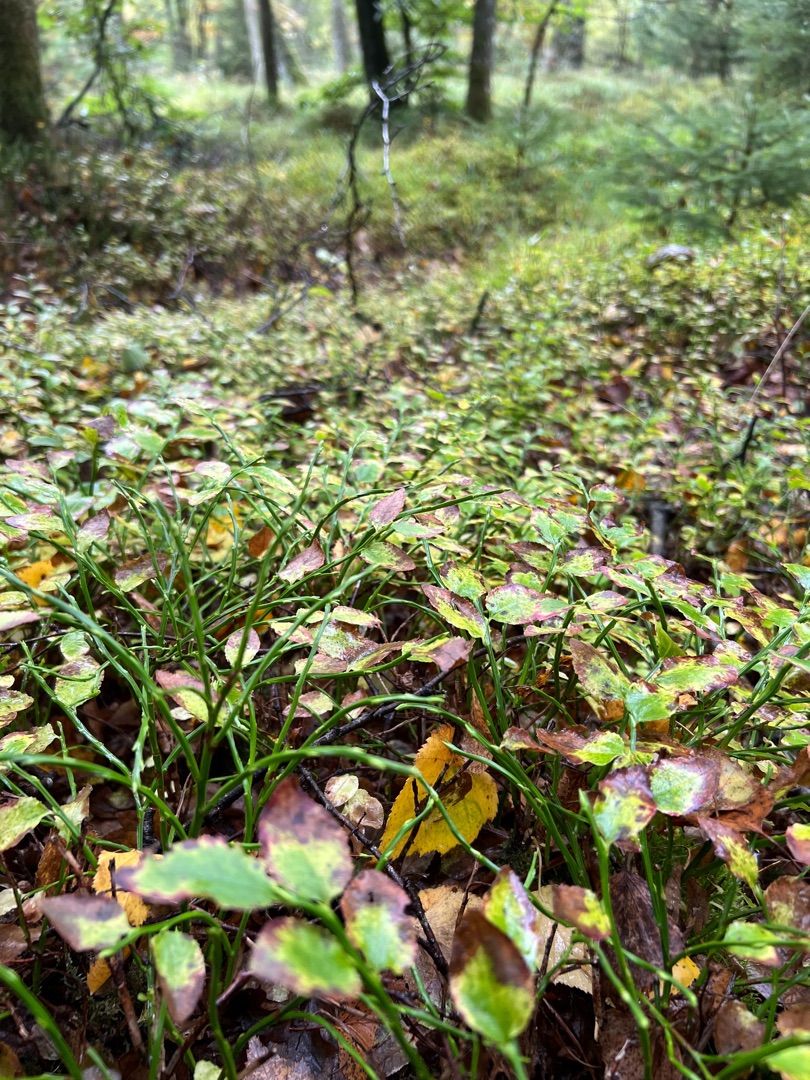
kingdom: Plantae
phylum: Tracheophyta
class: Magnoliopsida
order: Ericales
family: Ericaceae
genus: Vaccinium
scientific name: Vaccinium myrtillus
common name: Blåbær
